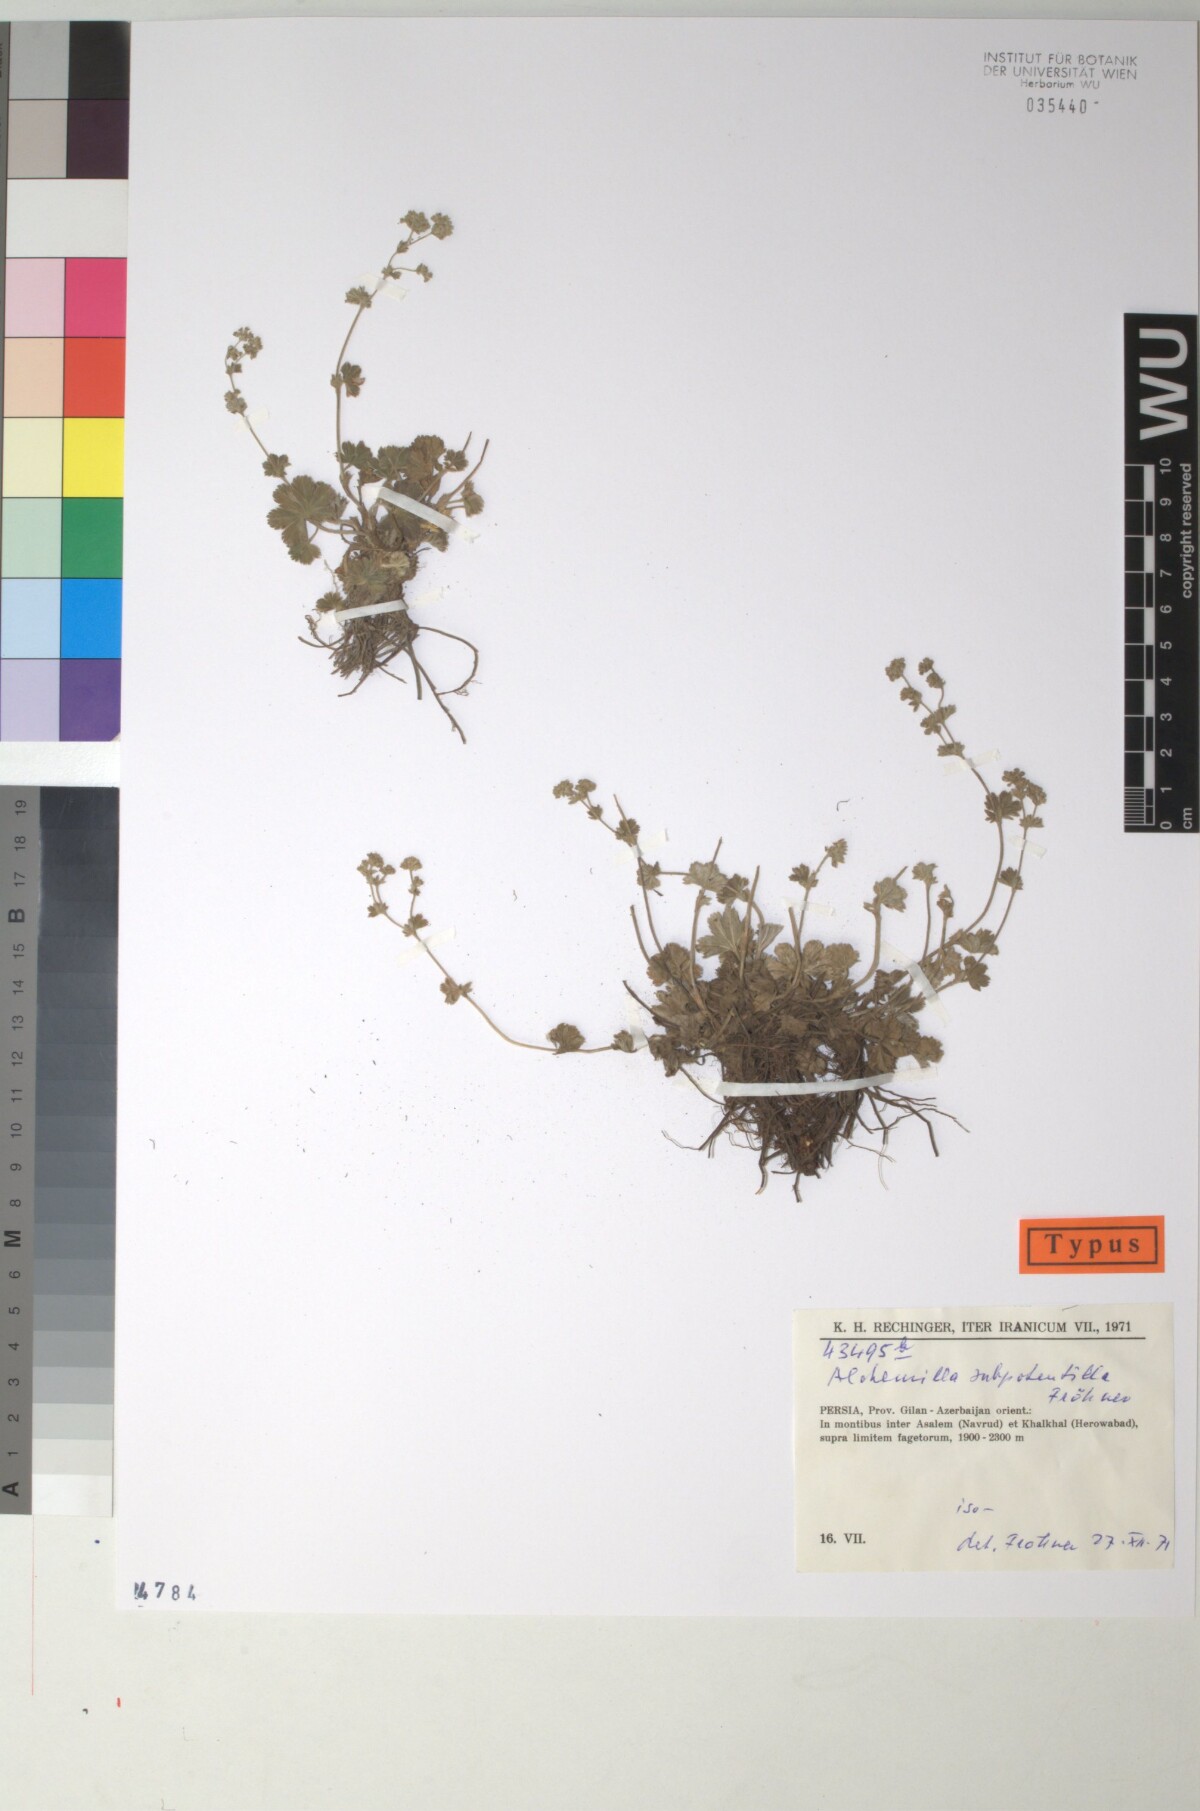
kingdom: Plantae
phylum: Tracheophyta
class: Magnoliopsida
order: Rosales
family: Rosaceae
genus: Alchemilla
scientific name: Alchemilla
